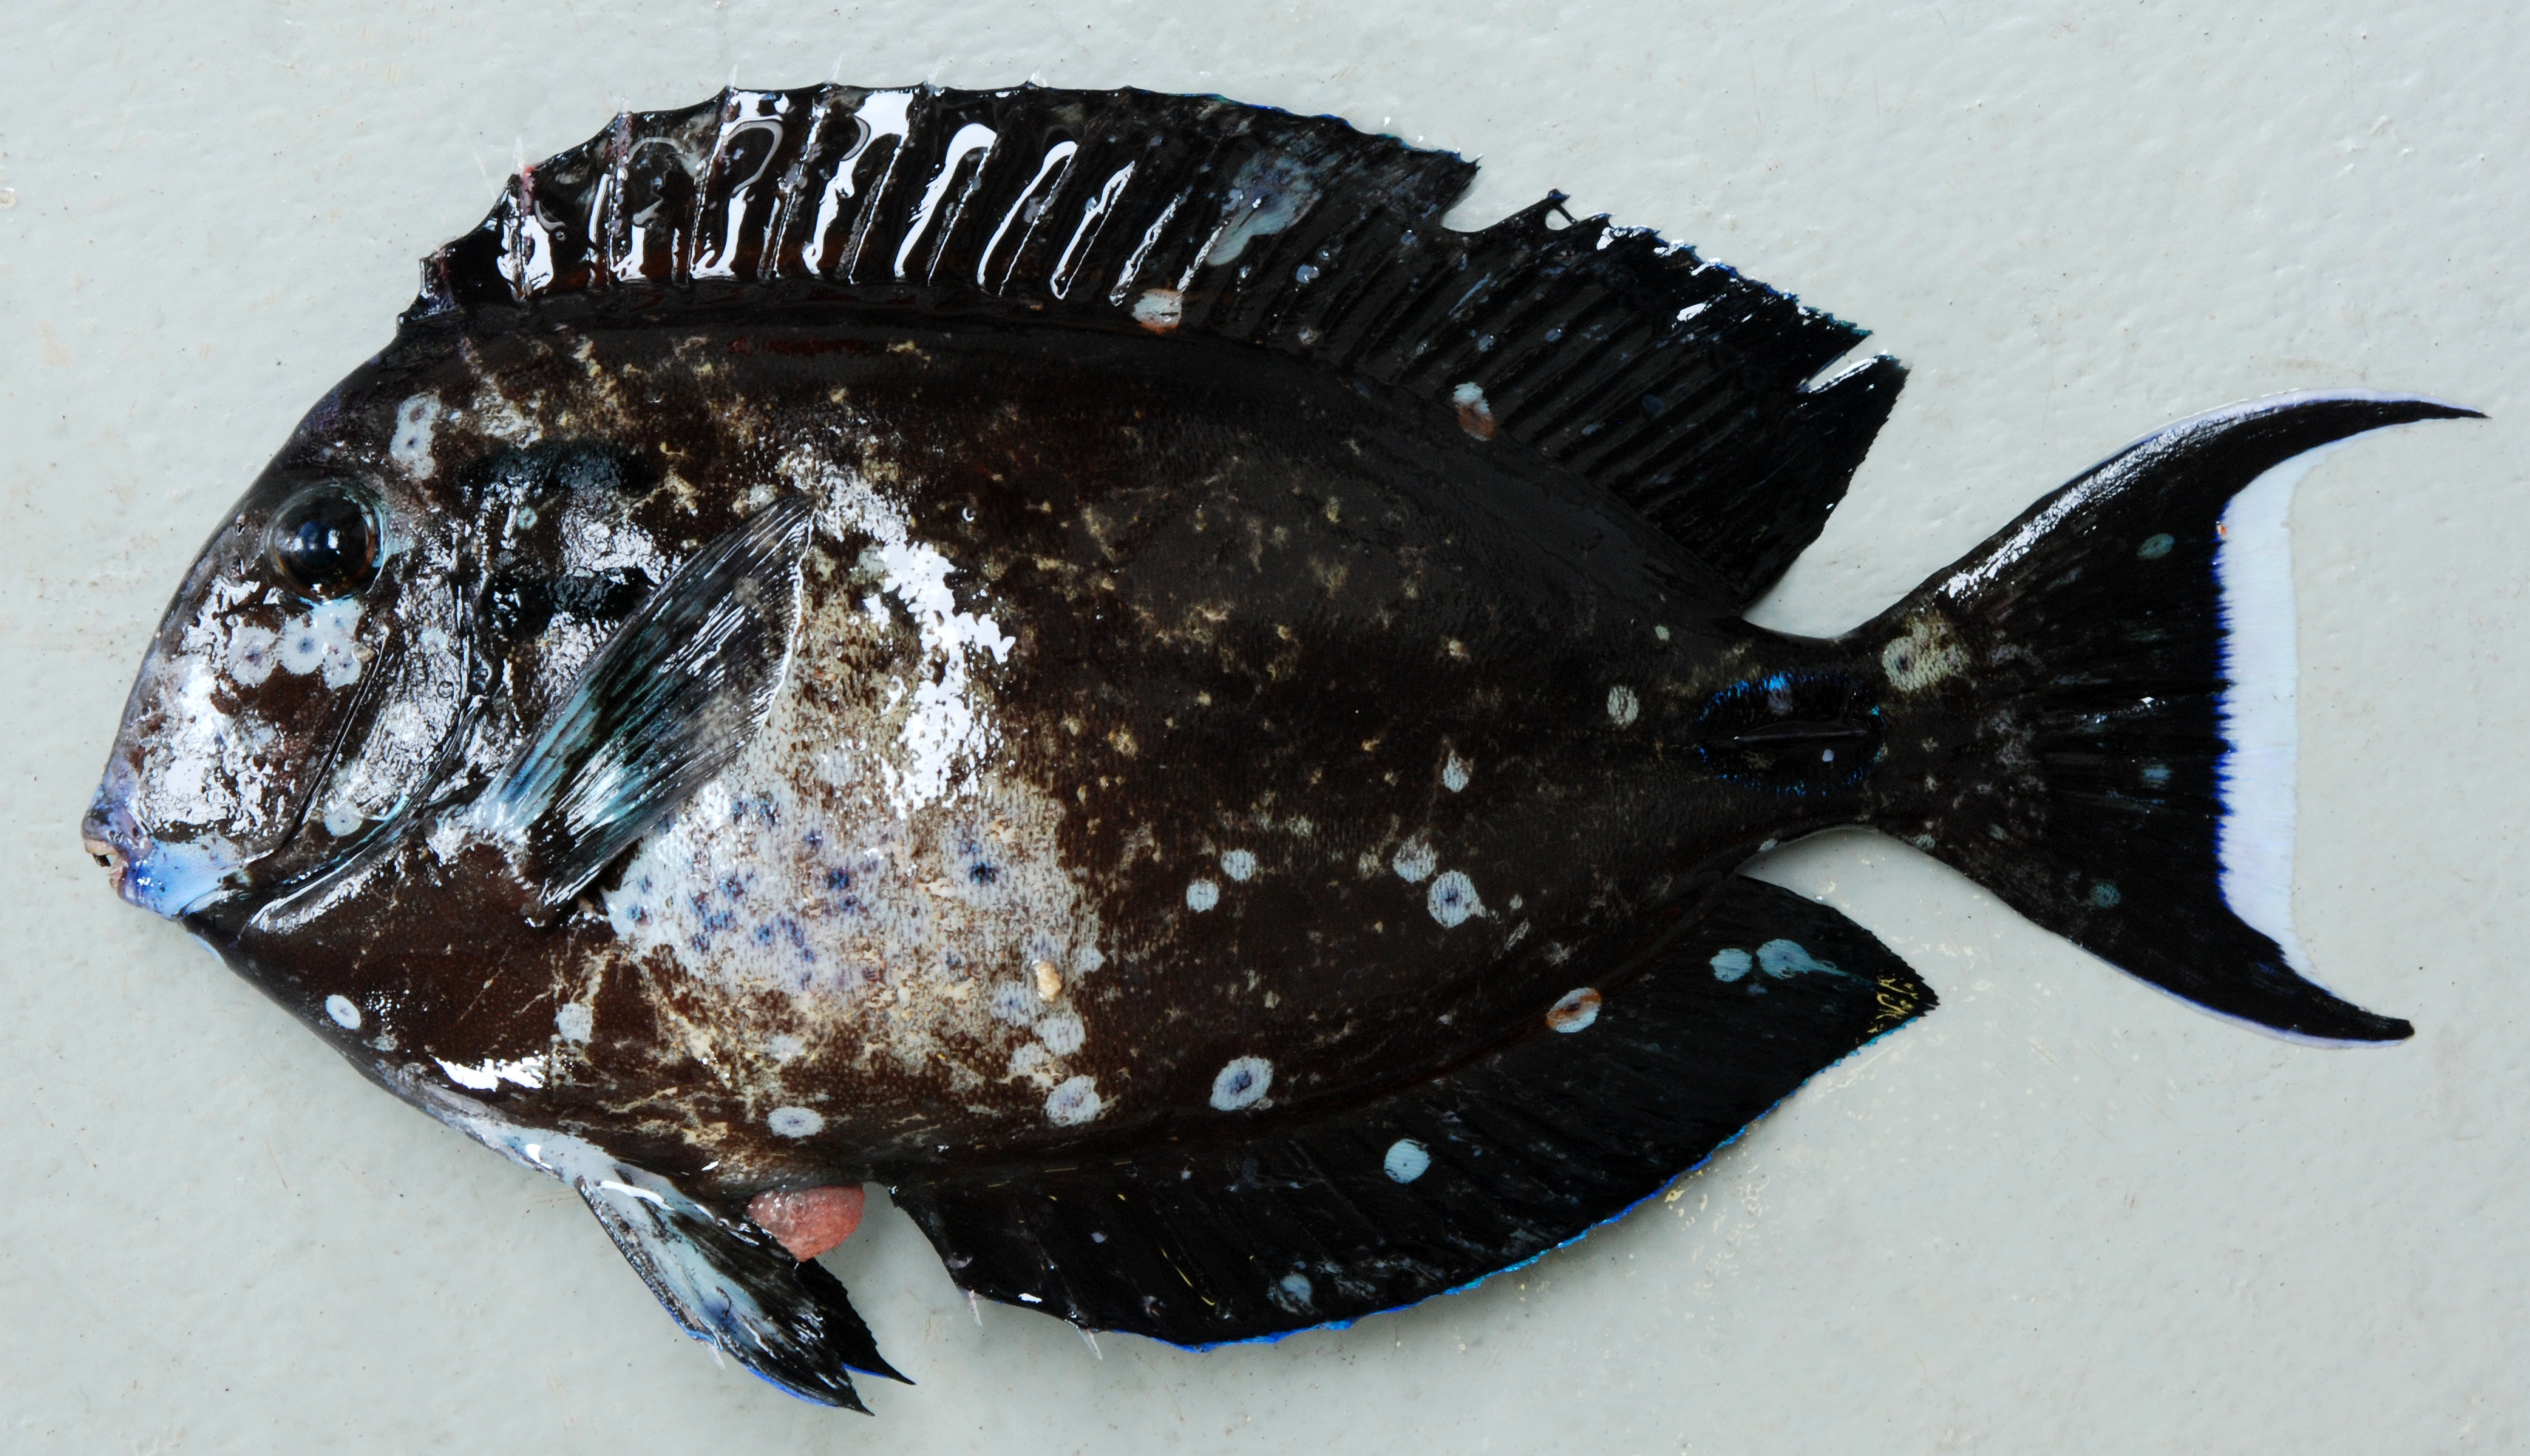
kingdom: Animalia
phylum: Chordata
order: Perciformes
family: Acanthuridae
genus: Acanthurus
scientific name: Acanthurus tennentii
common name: Doubleband surgeonfish
